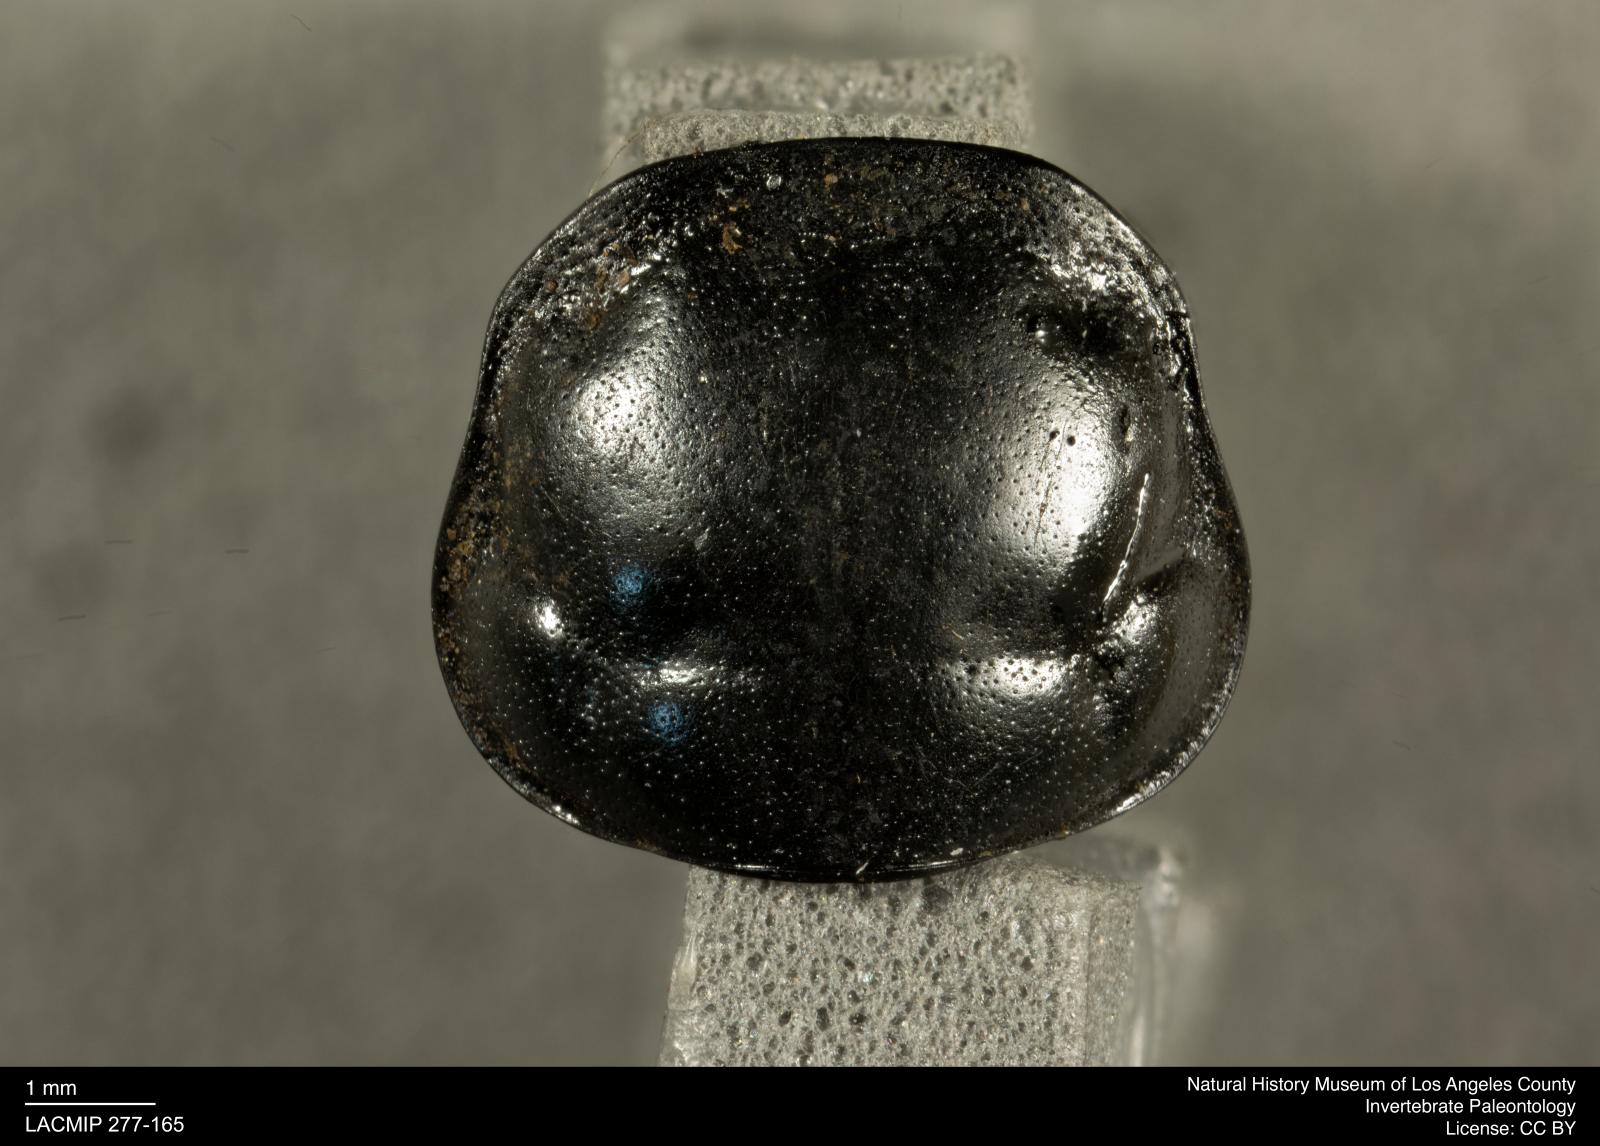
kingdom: Animalia
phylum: Arthropoda
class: Insecta
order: Coleoptera
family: Staphylinidae
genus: Nicrophorus
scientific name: Nicrophorus marginatus
